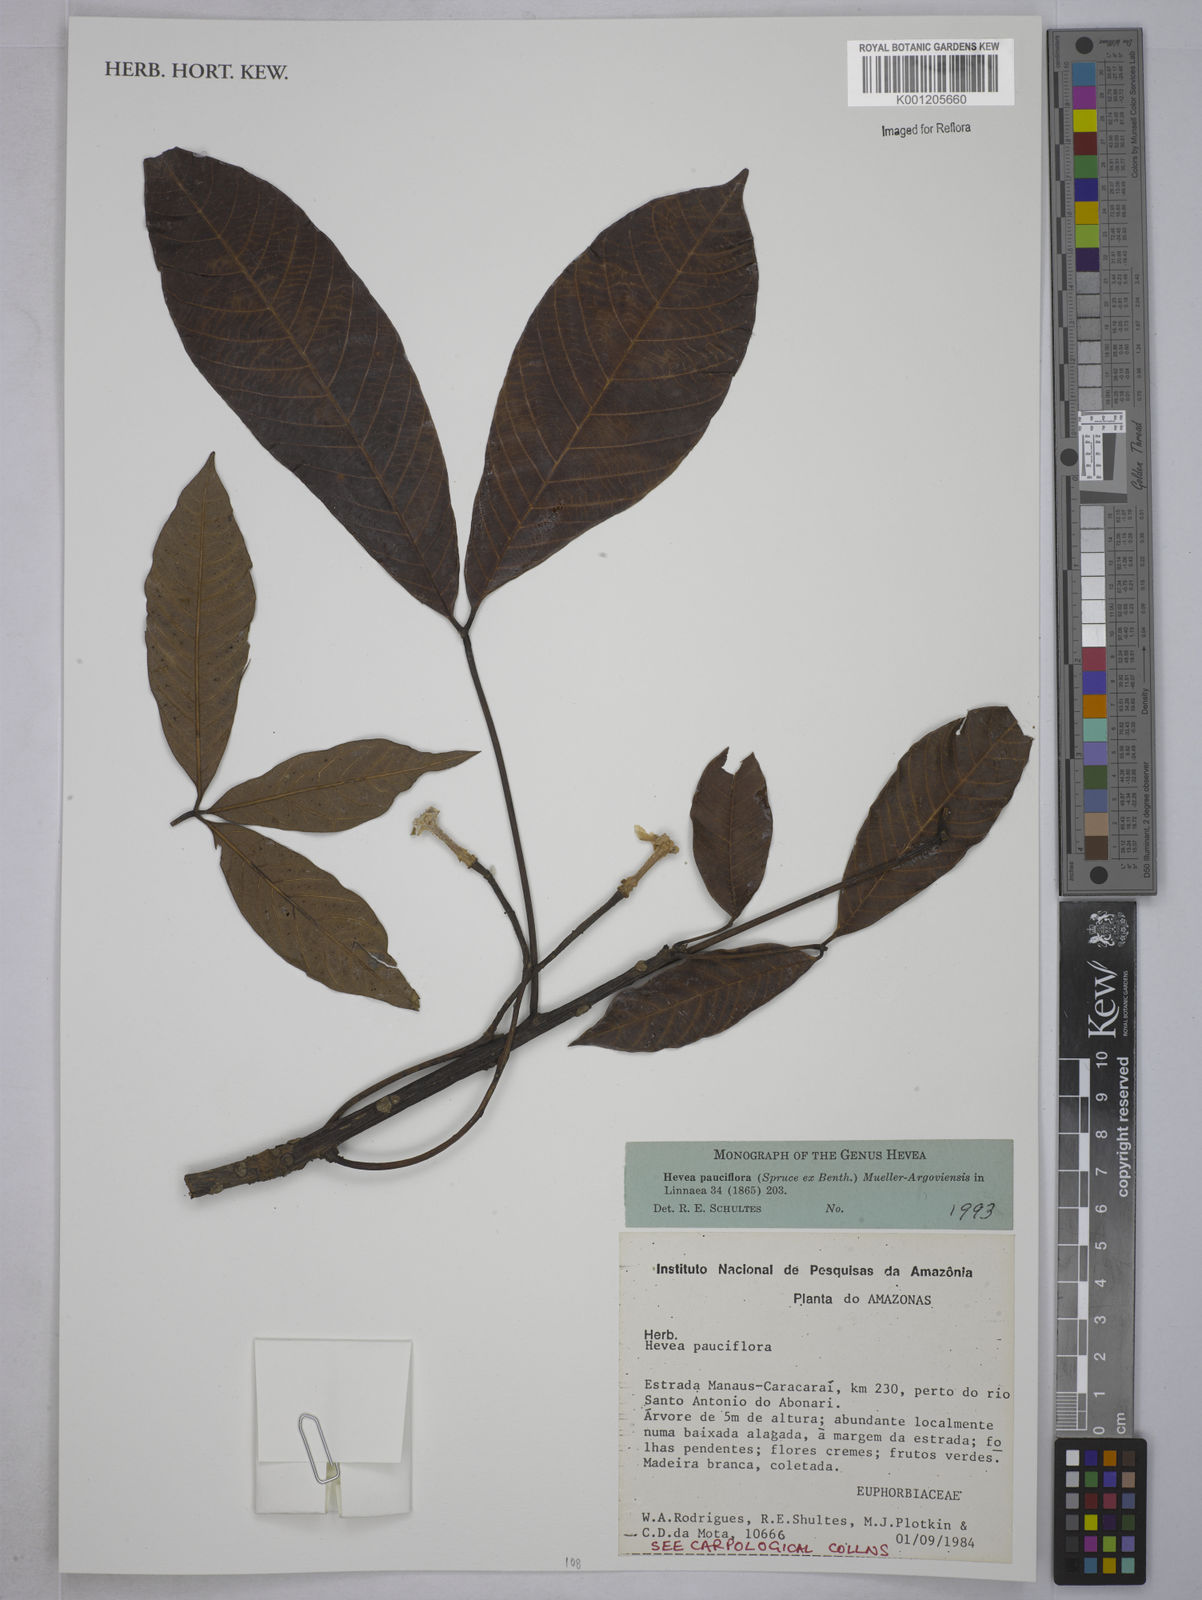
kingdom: Plantae
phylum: Tracheophyta
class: Magnoliopsida
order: Malpighiales
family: Euphorbiaceae
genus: Hevea
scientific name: Hevea
